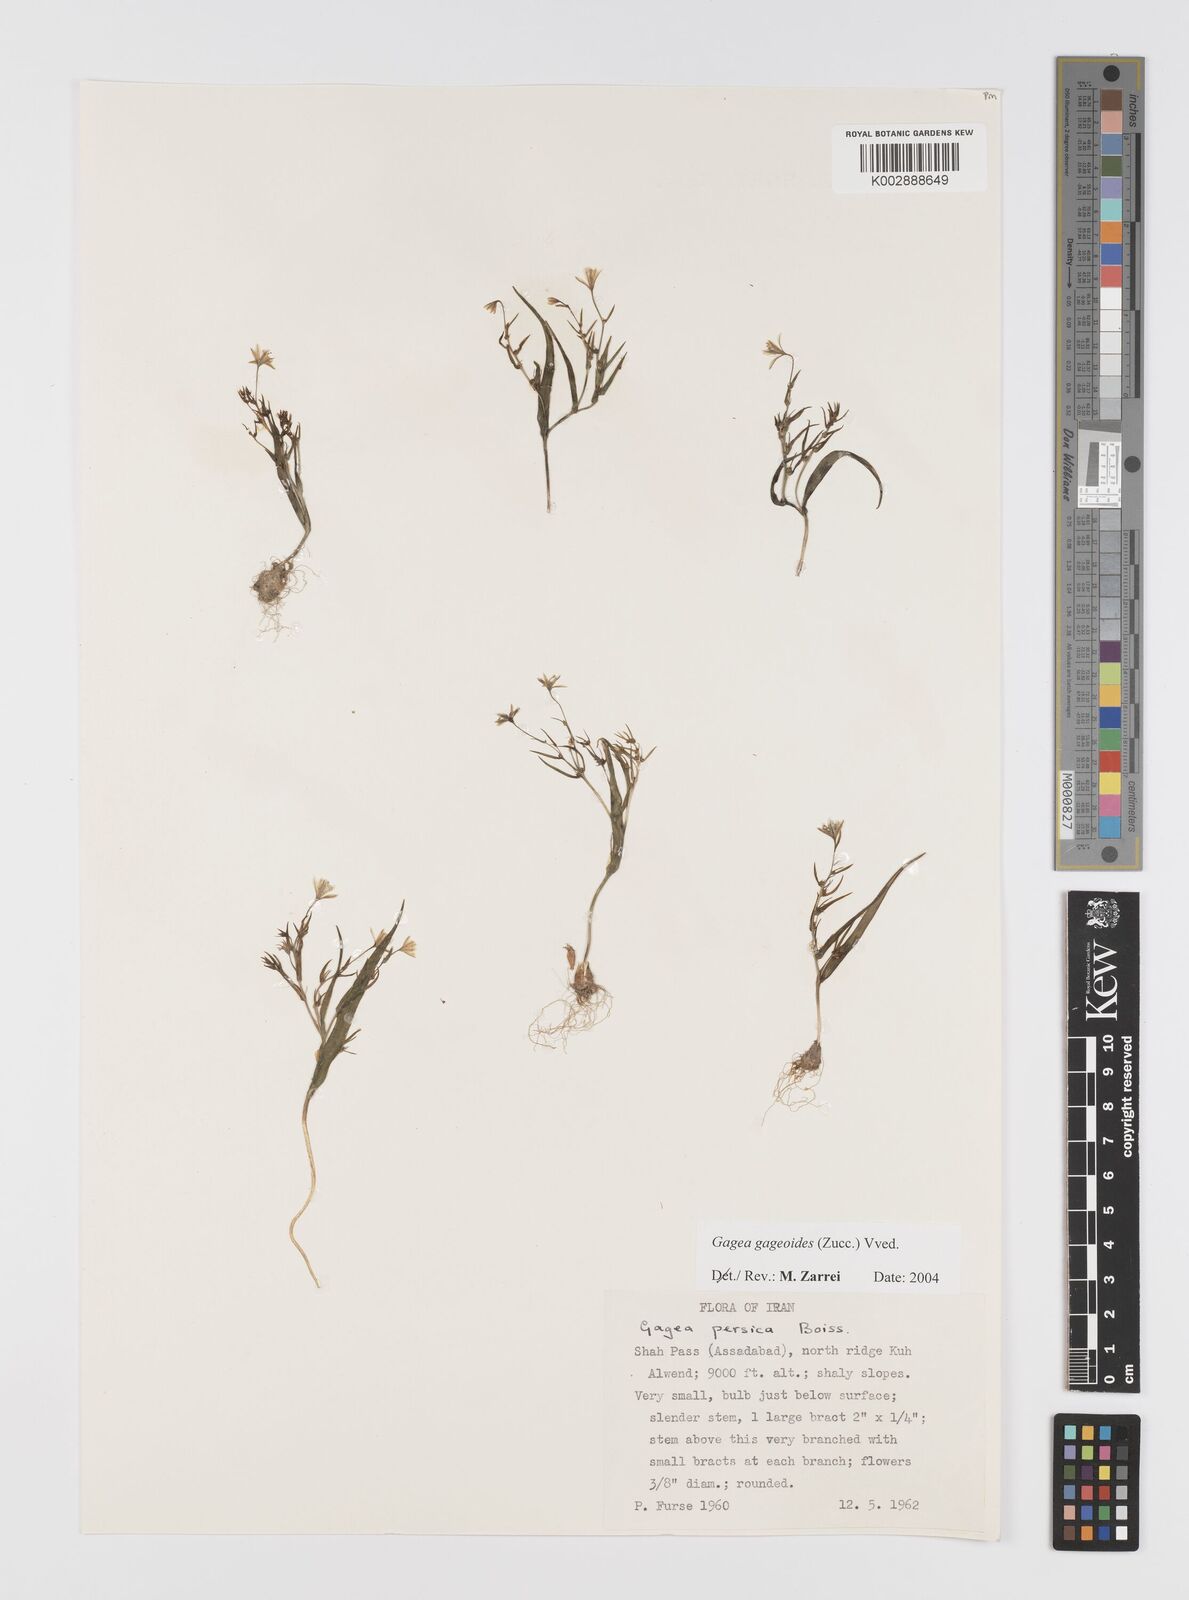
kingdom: Plantae
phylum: Tracheophyta
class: Liliopsida
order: Liliales
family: Liliaceae
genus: Gagea
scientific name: Gagea gageoides
